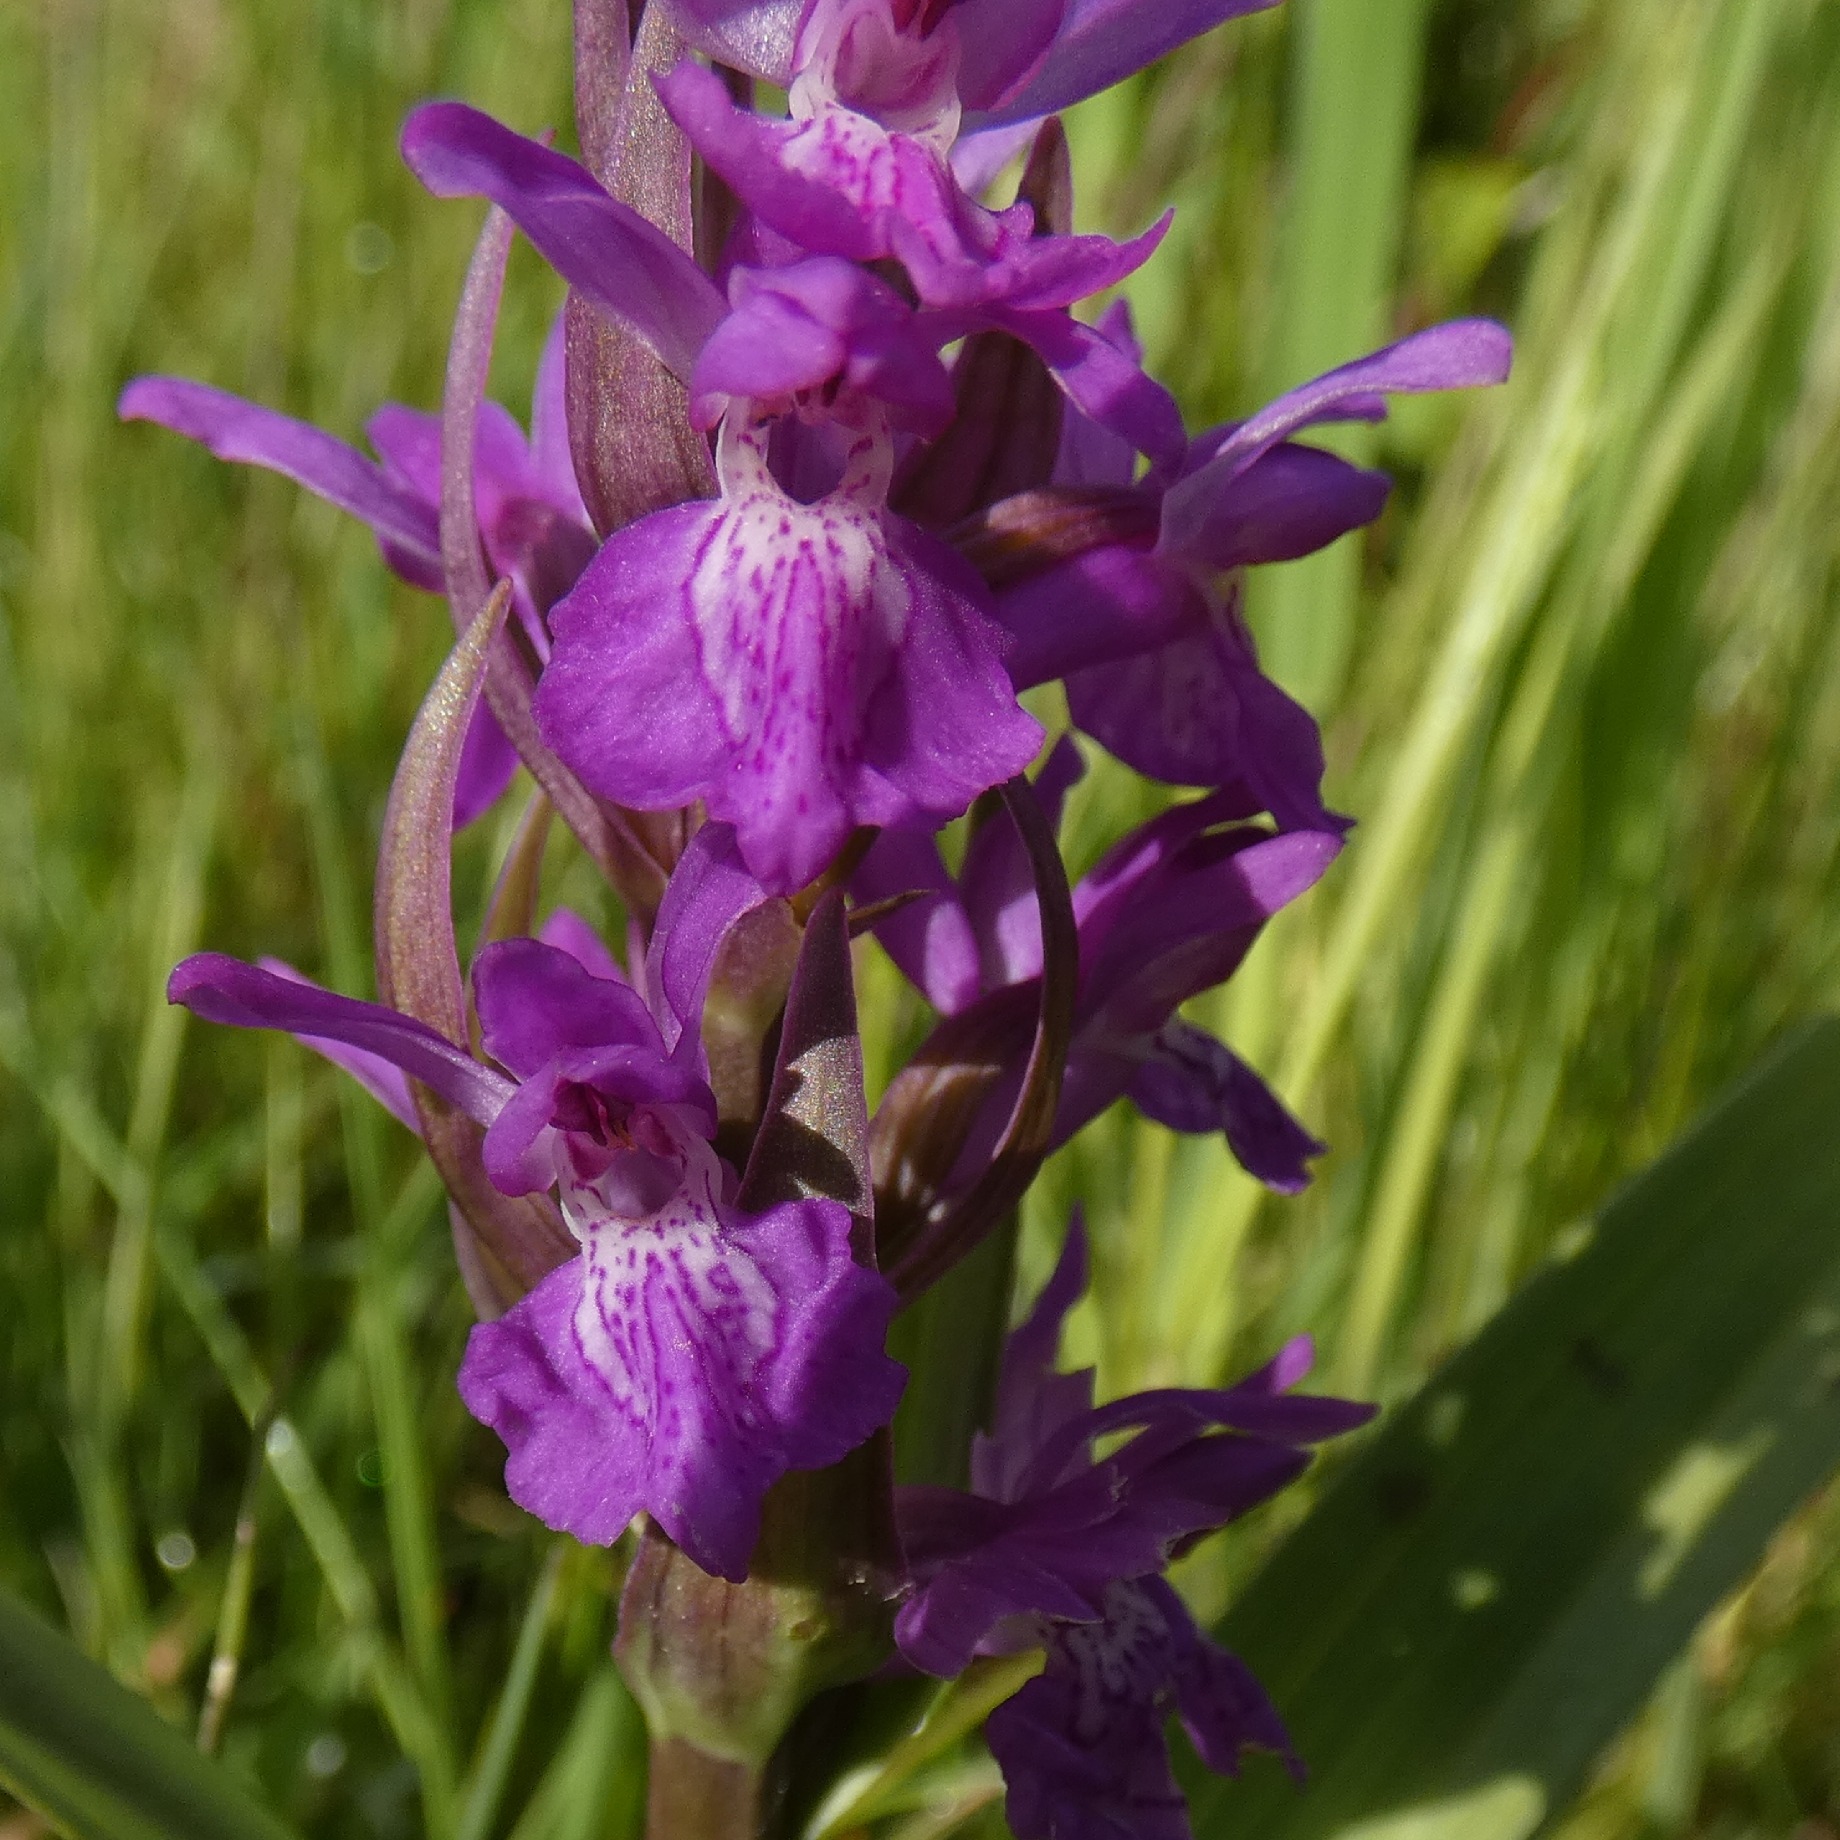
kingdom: Plantae
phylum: Tracheophyta
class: Liliopsida
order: Asparagales
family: Orchidaceae
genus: Dactylorhiza
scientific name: Dactylorhiza majalis
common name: Maj-gøgeurt
